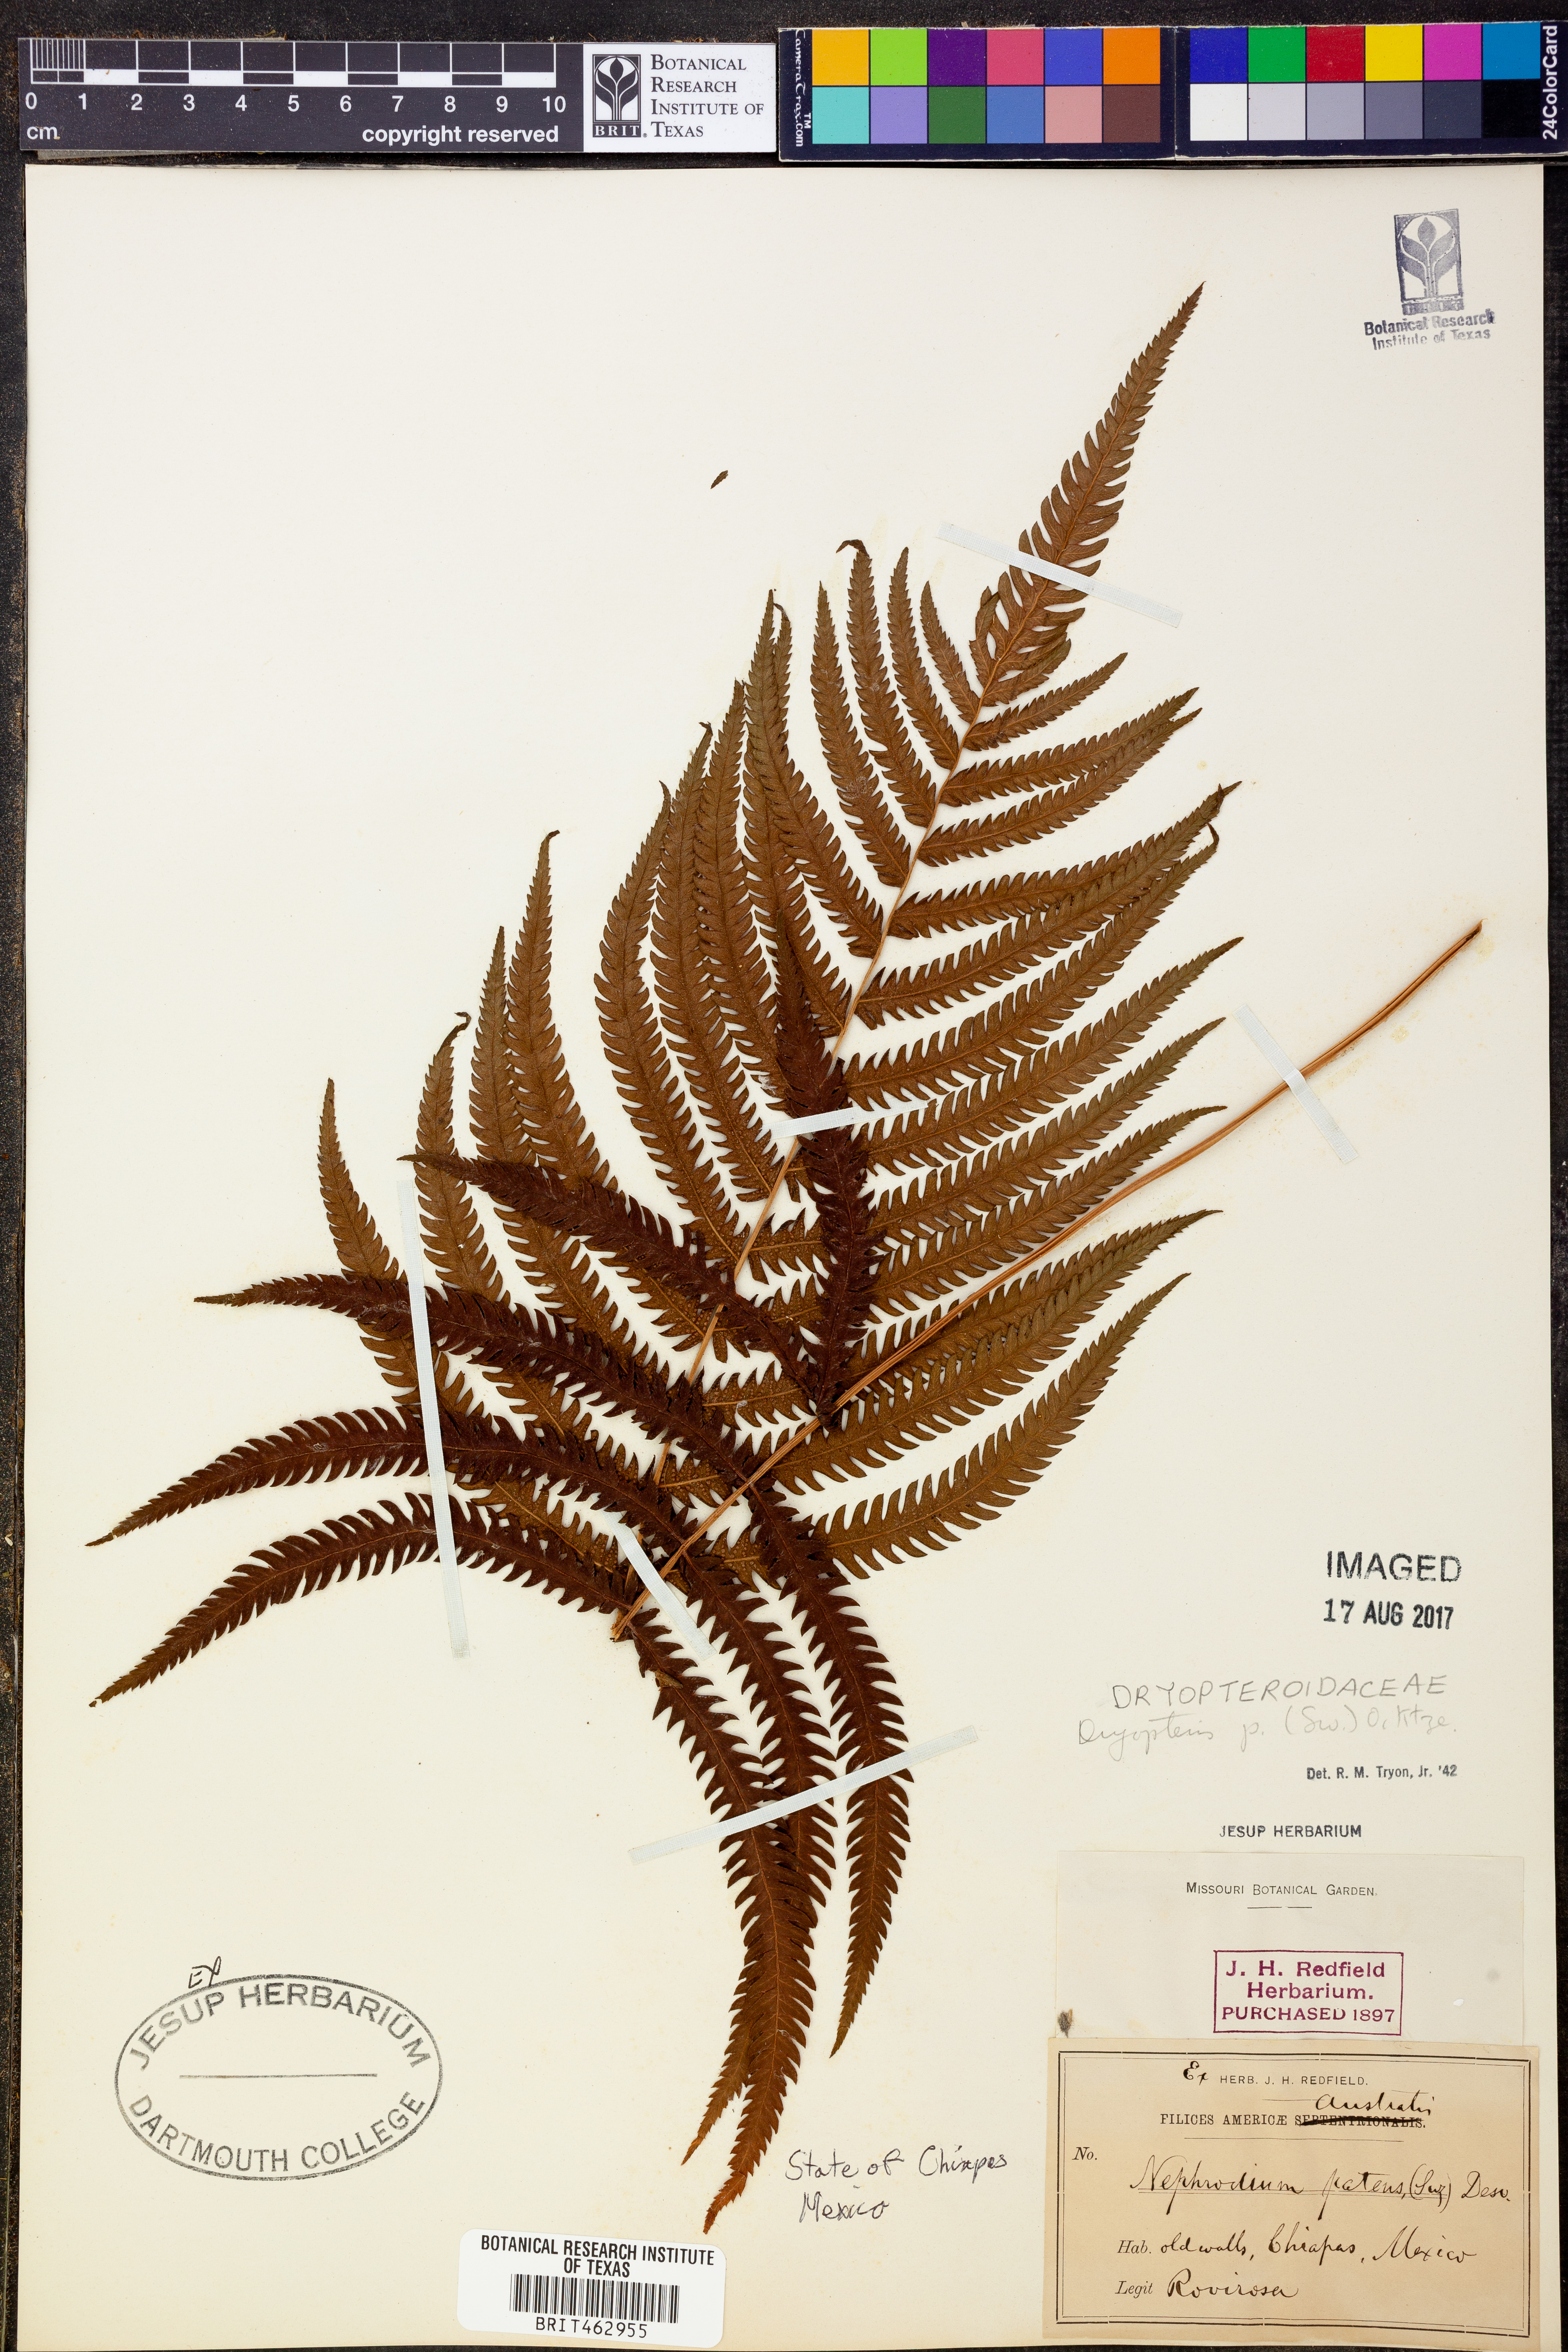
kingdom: Plantae
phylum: Tracheophyta
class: Polypodiopsida
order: Polypodiales
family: Thelypteridaceae
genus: Pelazoneuron
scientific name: Pelazoneuron patens
